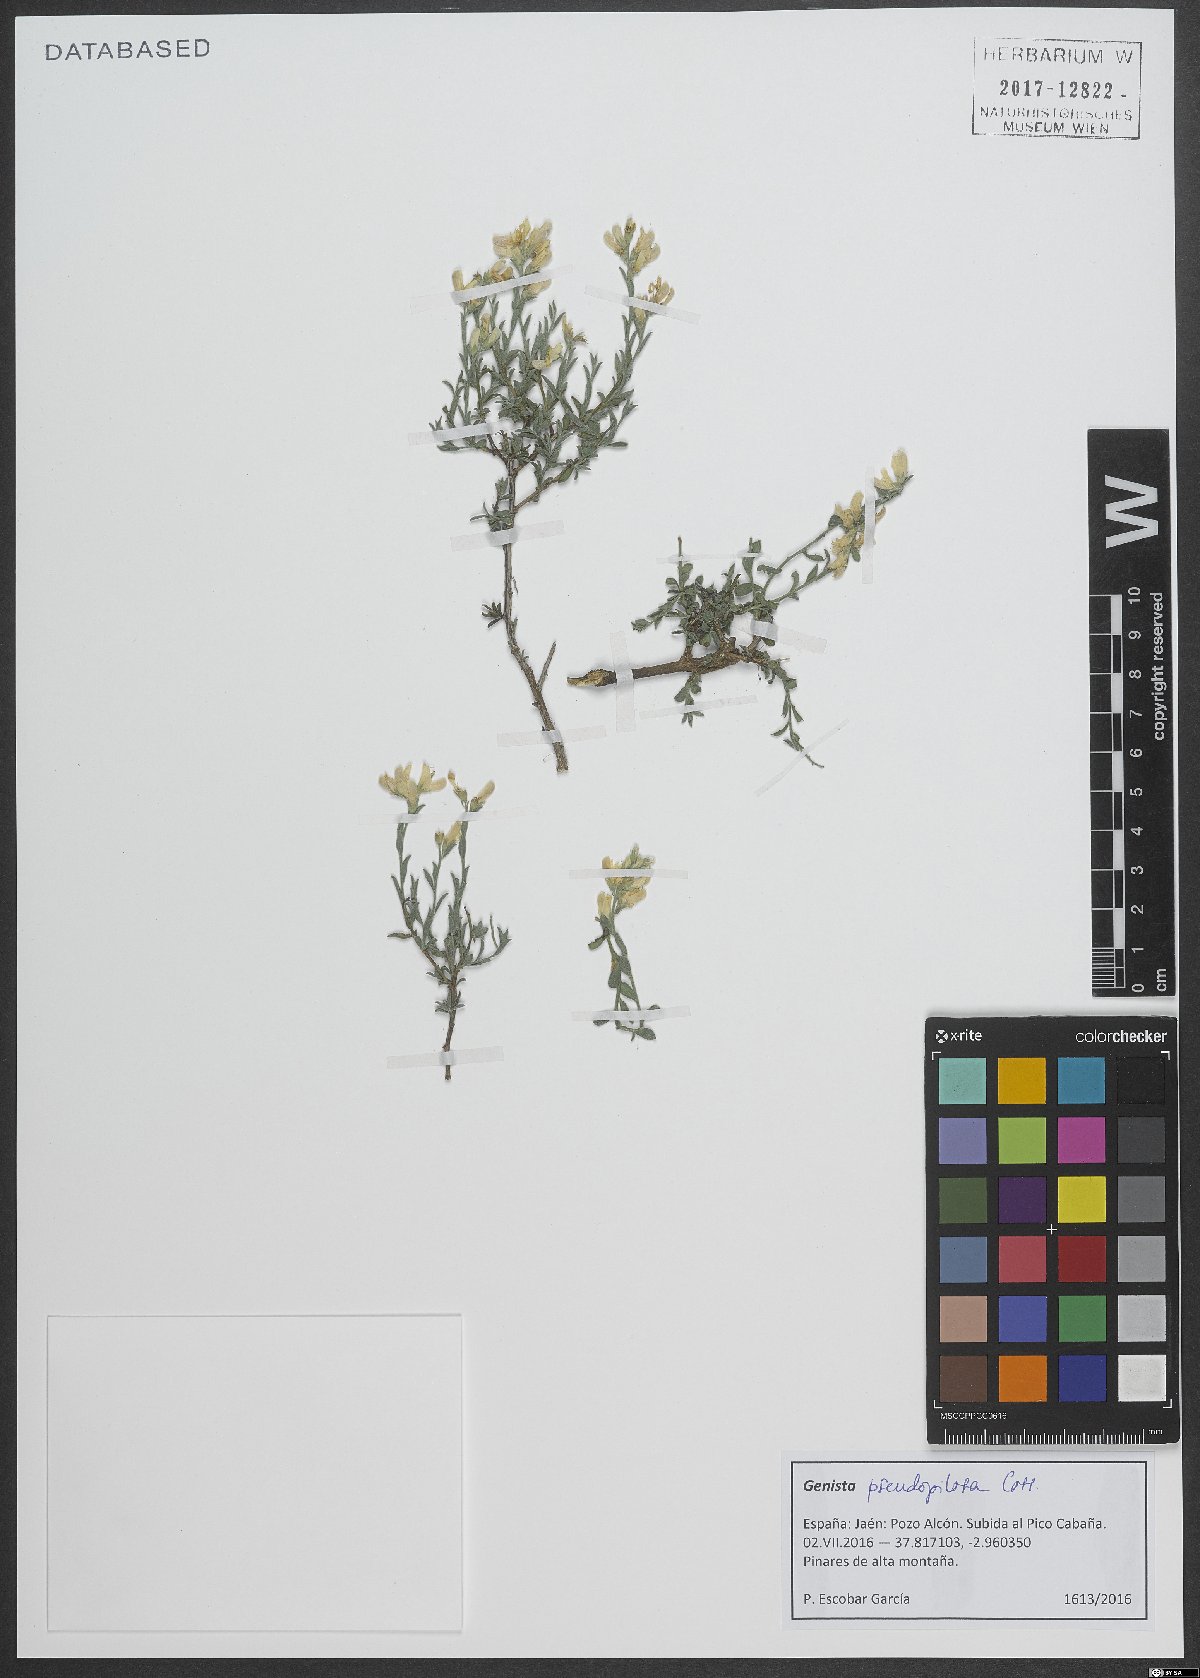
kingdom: Plantae
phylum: Tracheophyta
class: Magnoliopsida
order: Fabales
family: Fabaceae
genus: Genista
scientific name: Genista pseudopilosa
